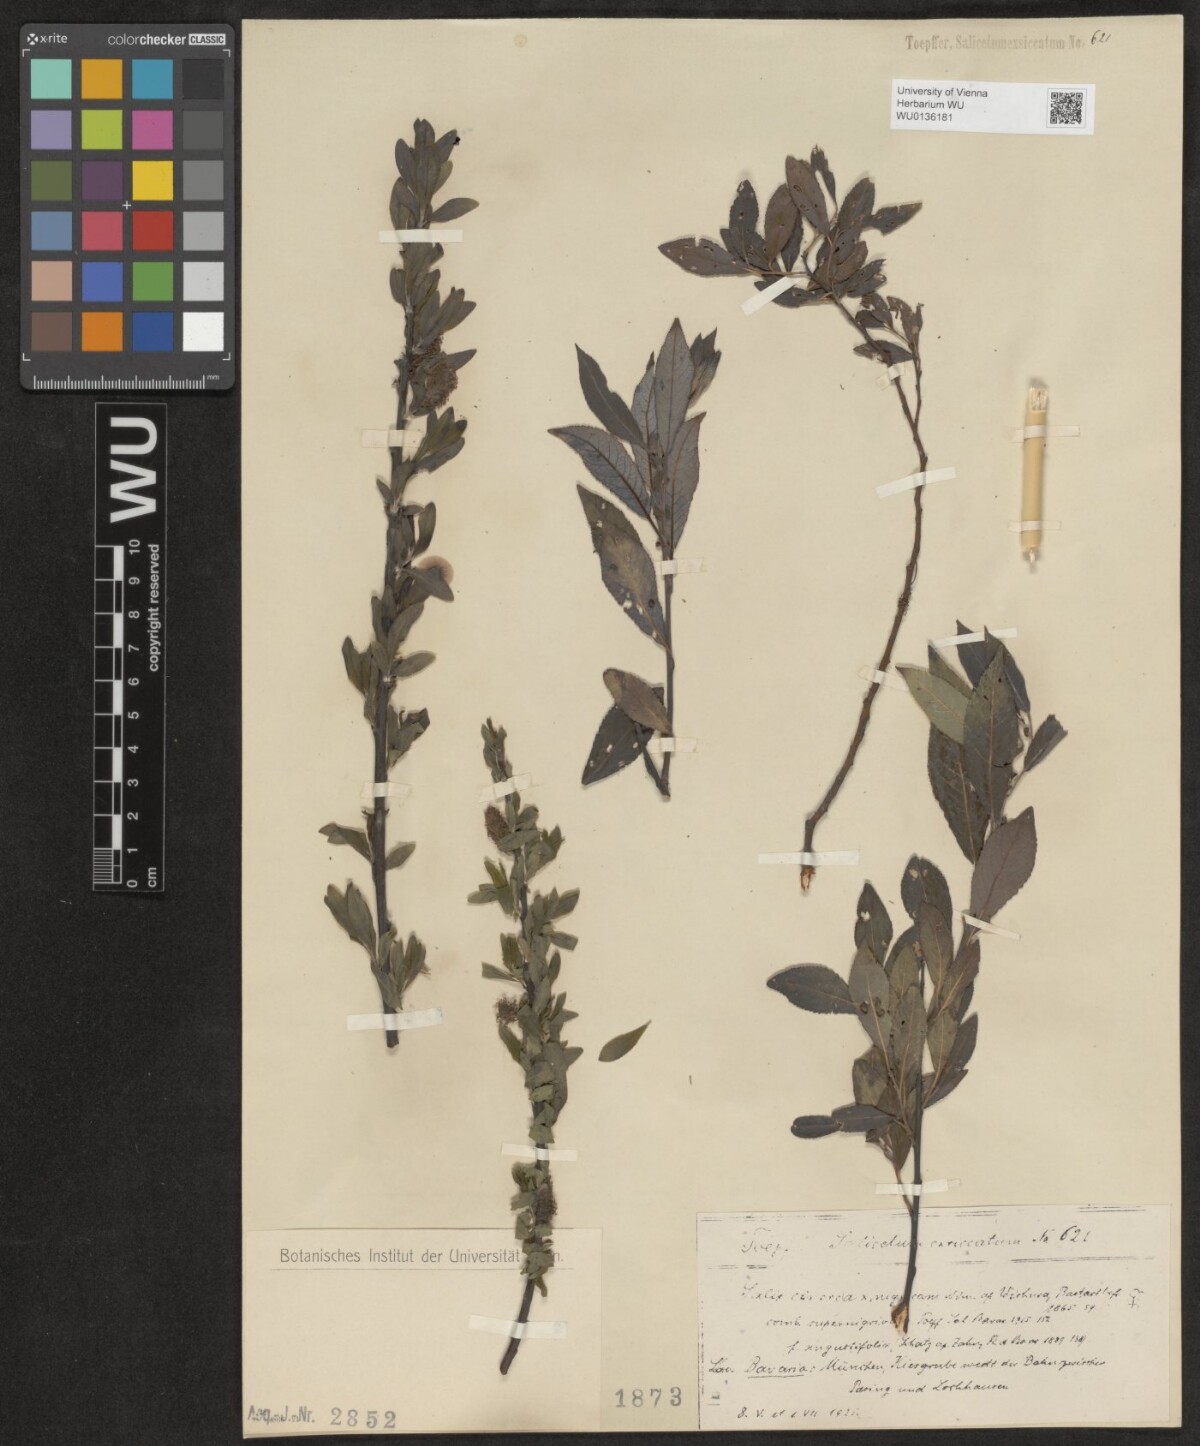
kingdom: Plantae
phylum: Tracheophyta
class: Magnoliopsida
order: Malpighiales
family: Salicaceae
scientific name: Salicaceae
